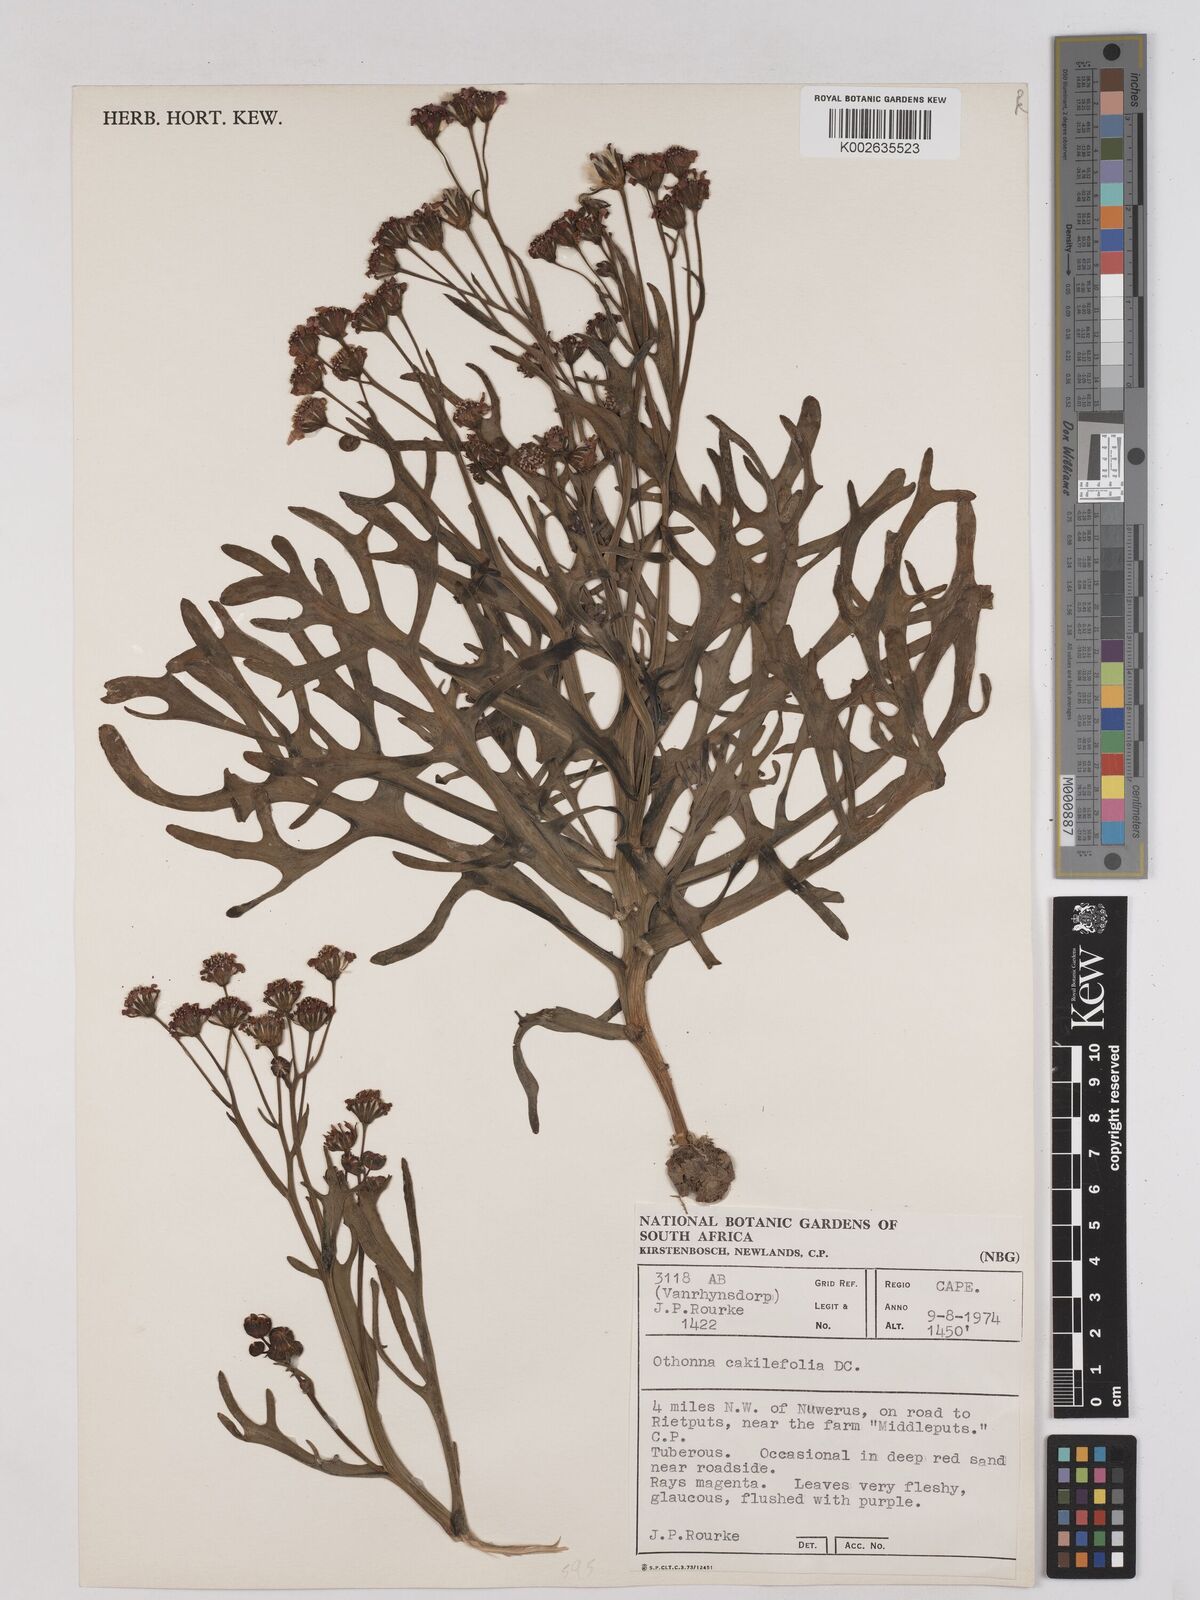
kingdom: Plantae
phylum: Tracheophyta
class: Magnoliopsida
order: Asterales
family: Asteraceae
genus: Othonna
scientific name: Othonna cakilefolia
